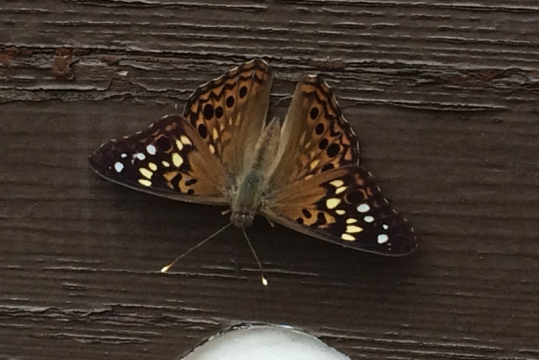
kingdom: Animalia
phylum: Arthropoda
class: Insecta
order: Lepidoptera
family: Nymphalidae
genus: Asterocampa
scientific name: Asterocampa celtis
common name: Hackberry Emperor
